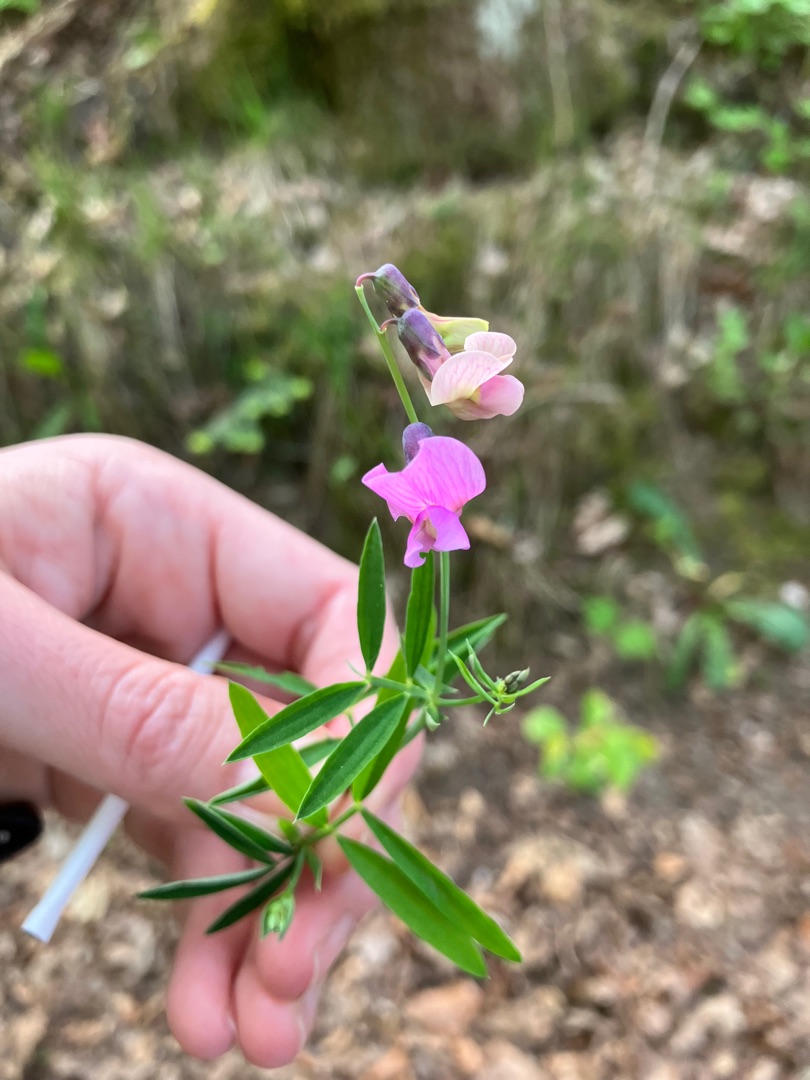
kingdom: Plantae
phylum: Tracheophyta
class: Magnoliopsida
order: Fabales
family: Fabaceae
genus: Lathyrus
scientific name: Lathyrus linifolius
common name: Krat-fladbælg
